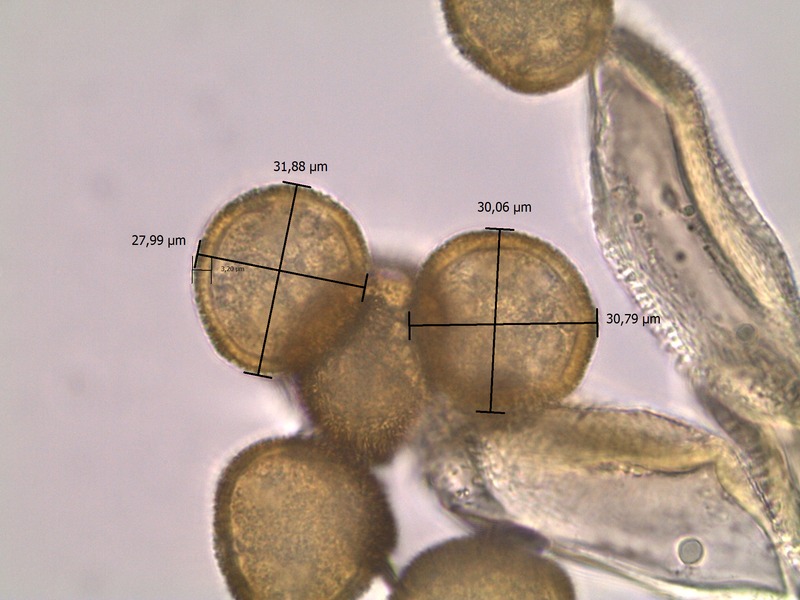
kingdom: Fungi
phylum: Basidiomycota
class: Pucciniomycetes
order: Pucciniales
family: Gymnosporangiaceae
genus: Gymnosporangium
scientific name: Gymnosporangium clavariiforme
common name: Tongues of fire
